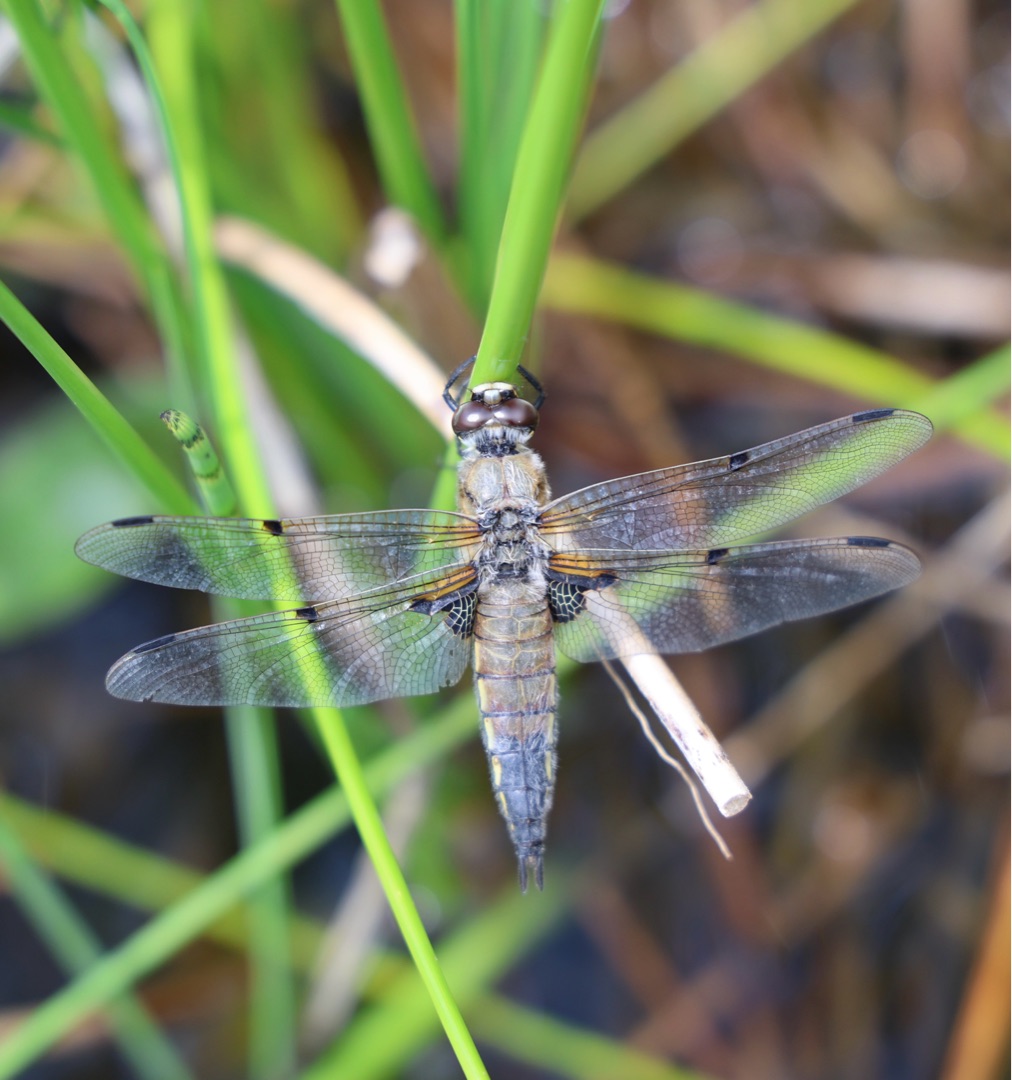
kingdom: Animalia
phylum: Arthropoda
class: Insecta
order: Odonata
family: Libellulidae
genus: Libellula
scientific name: Libellula quadrimaculata
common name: Fireplettet libel
